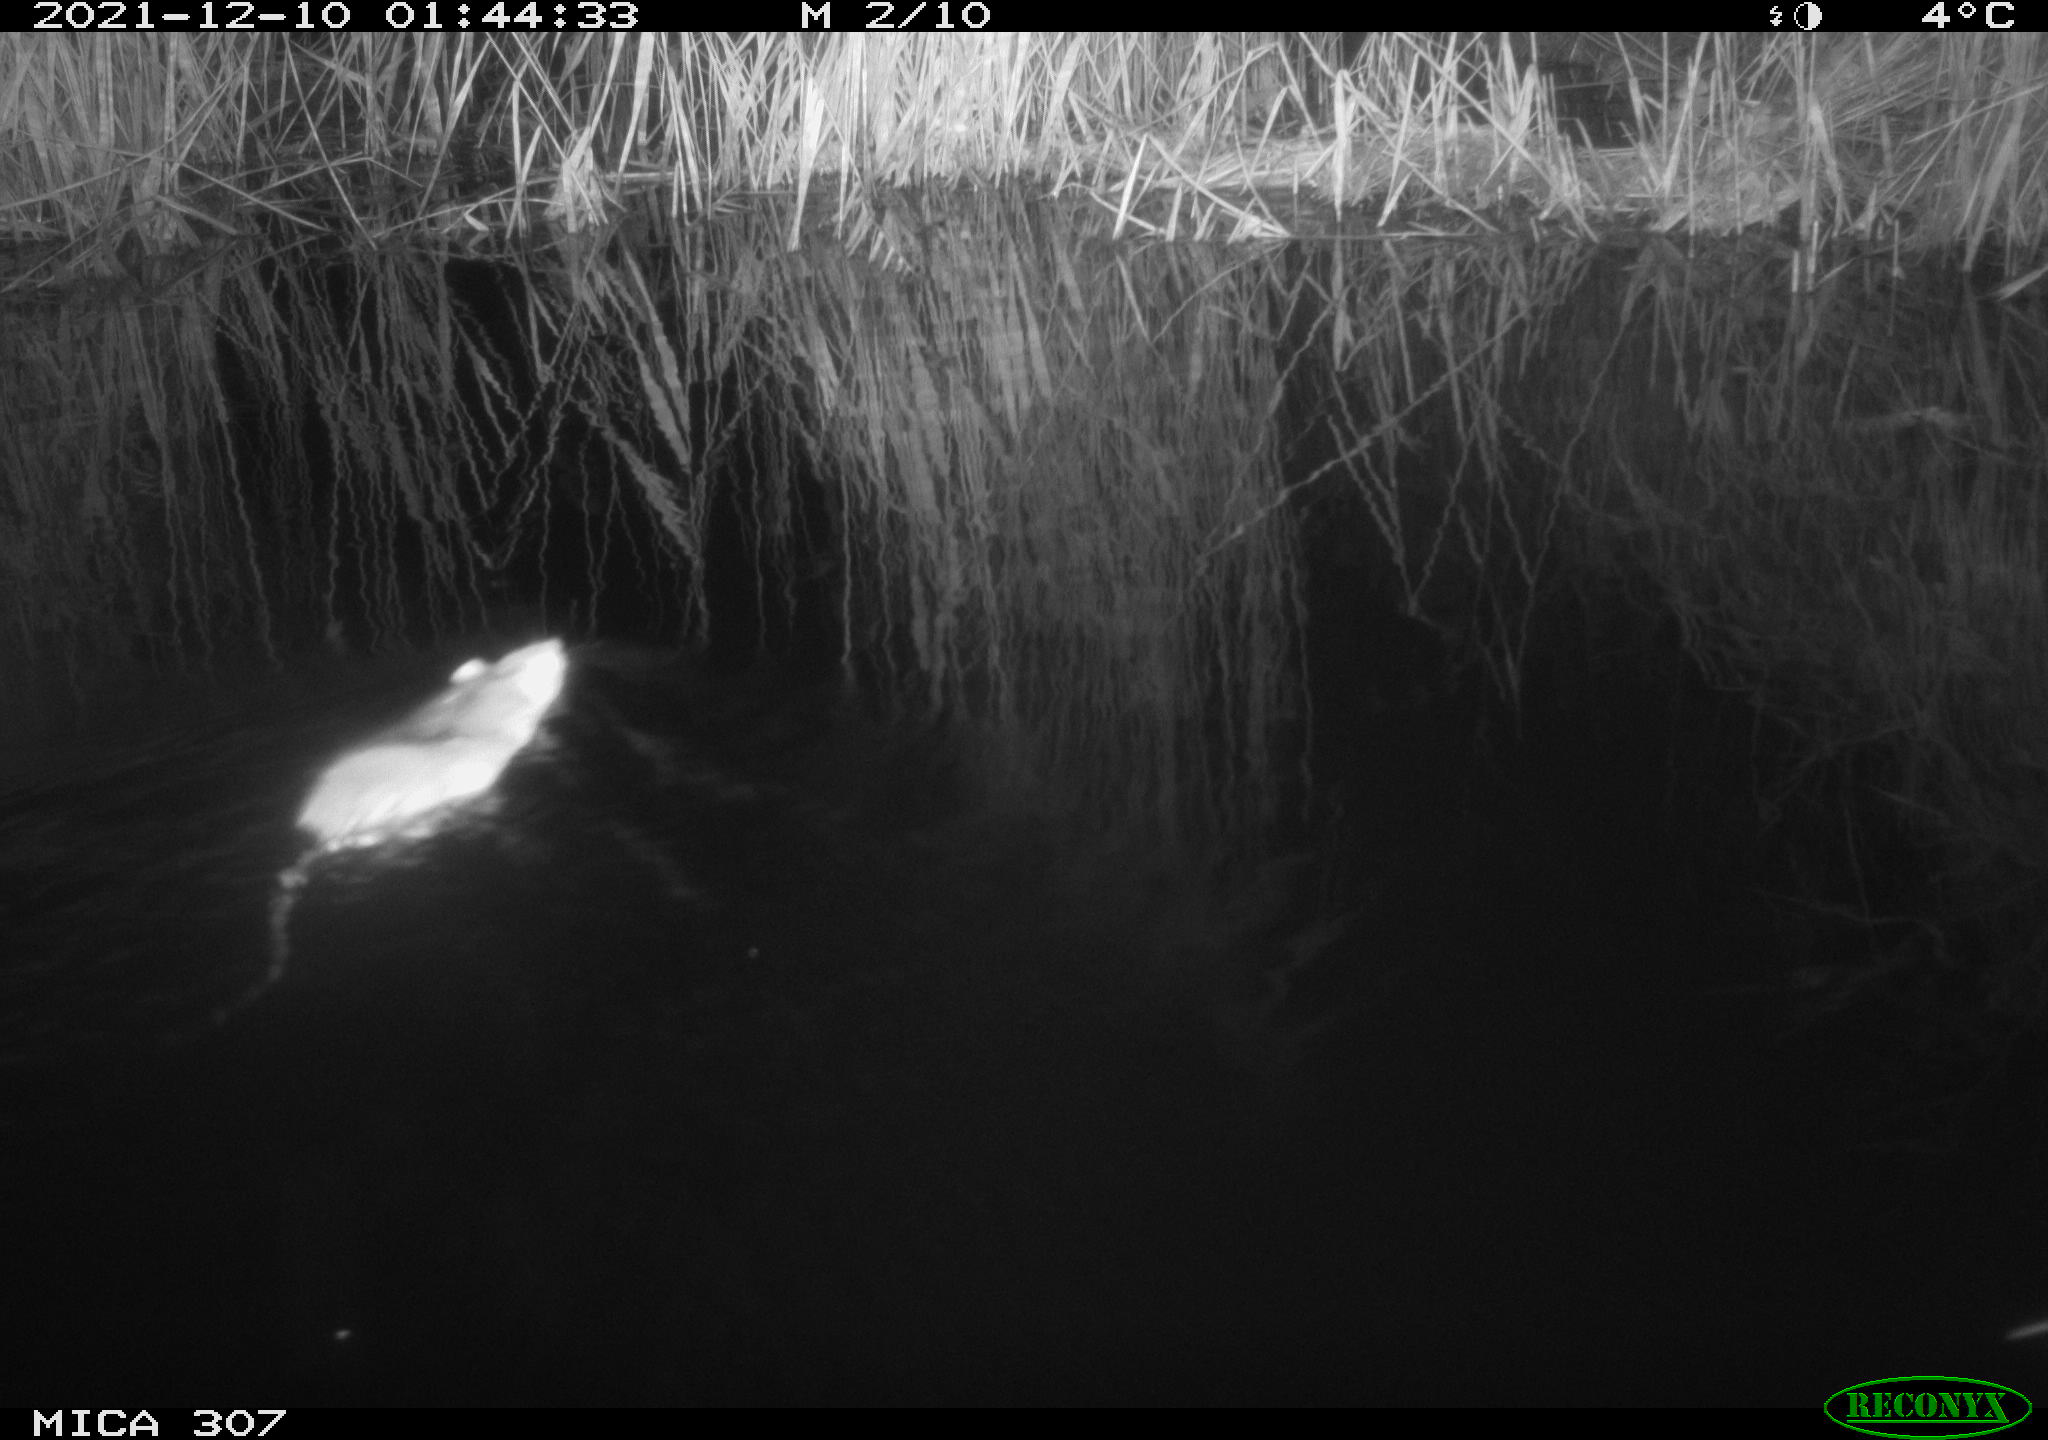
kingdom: Animalia
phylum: Chordata
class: Mammalia
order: Rodentia
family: Muridae
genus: Rattus
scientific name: Rattus norvegicus
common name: Brown rat
